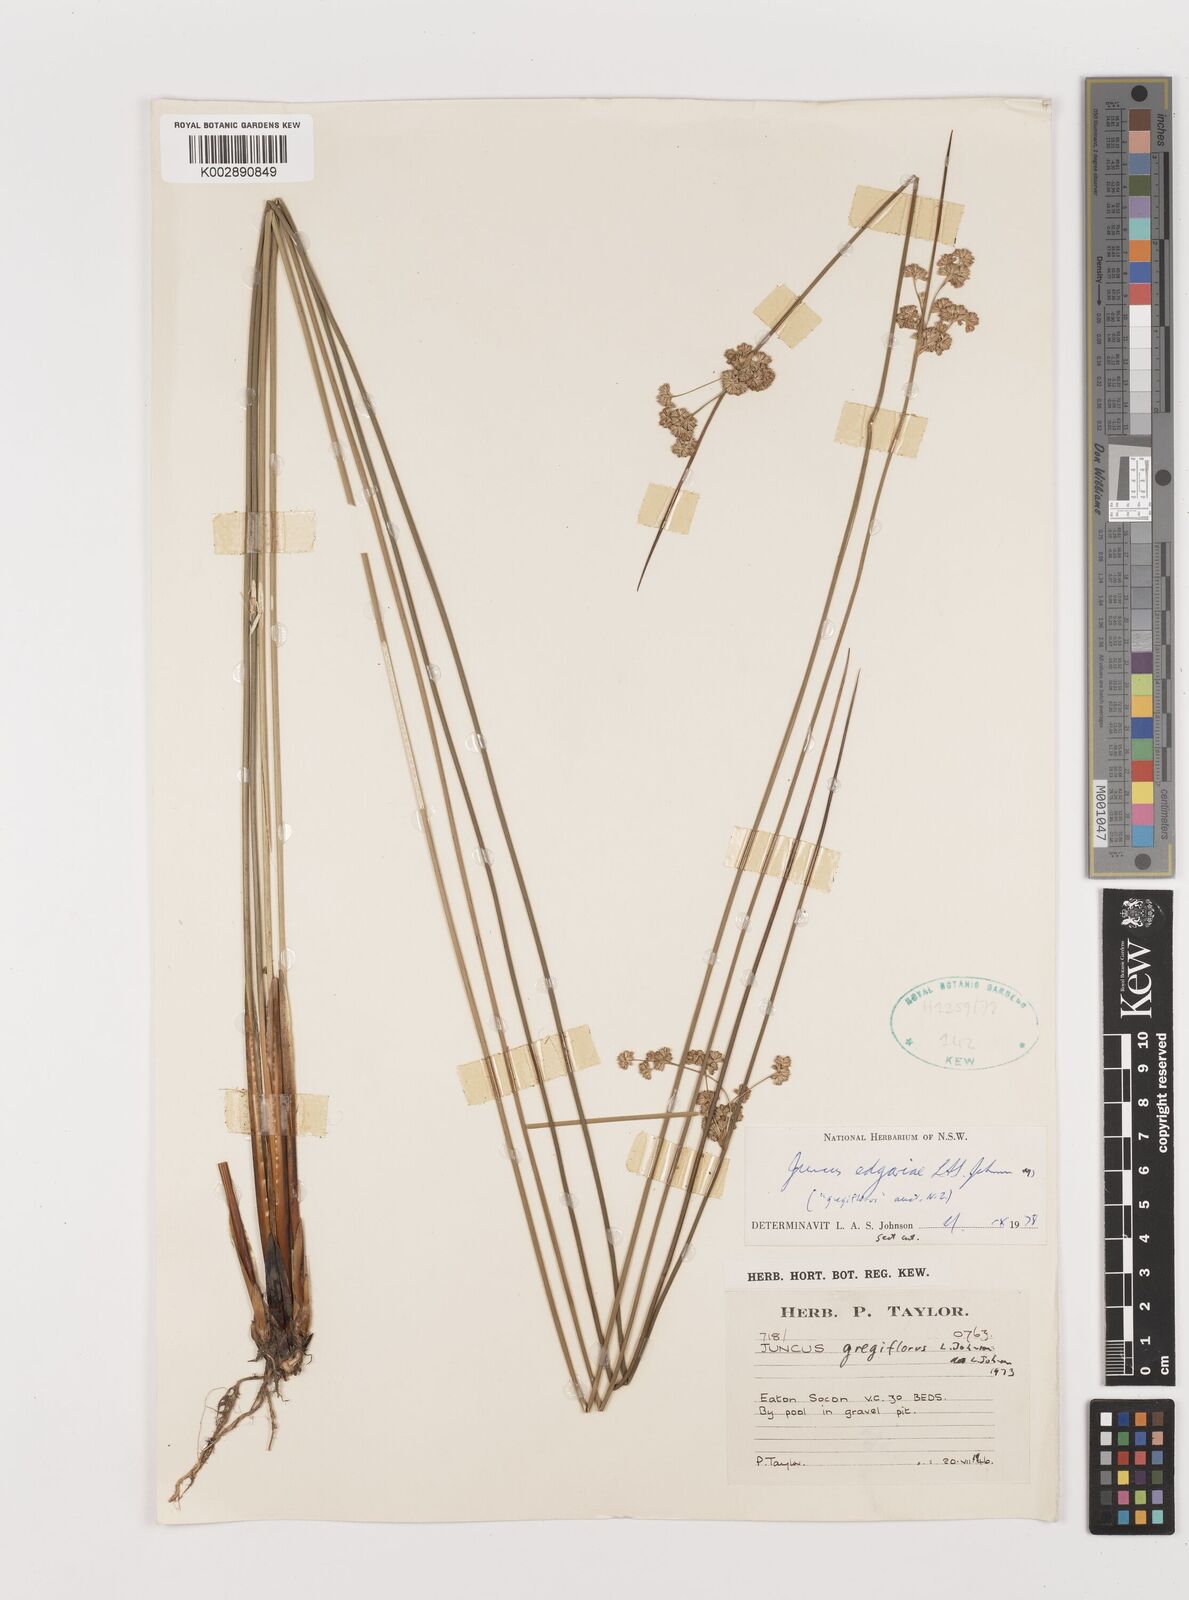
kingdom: Plantae
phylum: Tracheophyta
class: Liliopsida
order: Poales
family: Juncaceae
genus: Juncus
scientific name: Juncus gregiflorus
